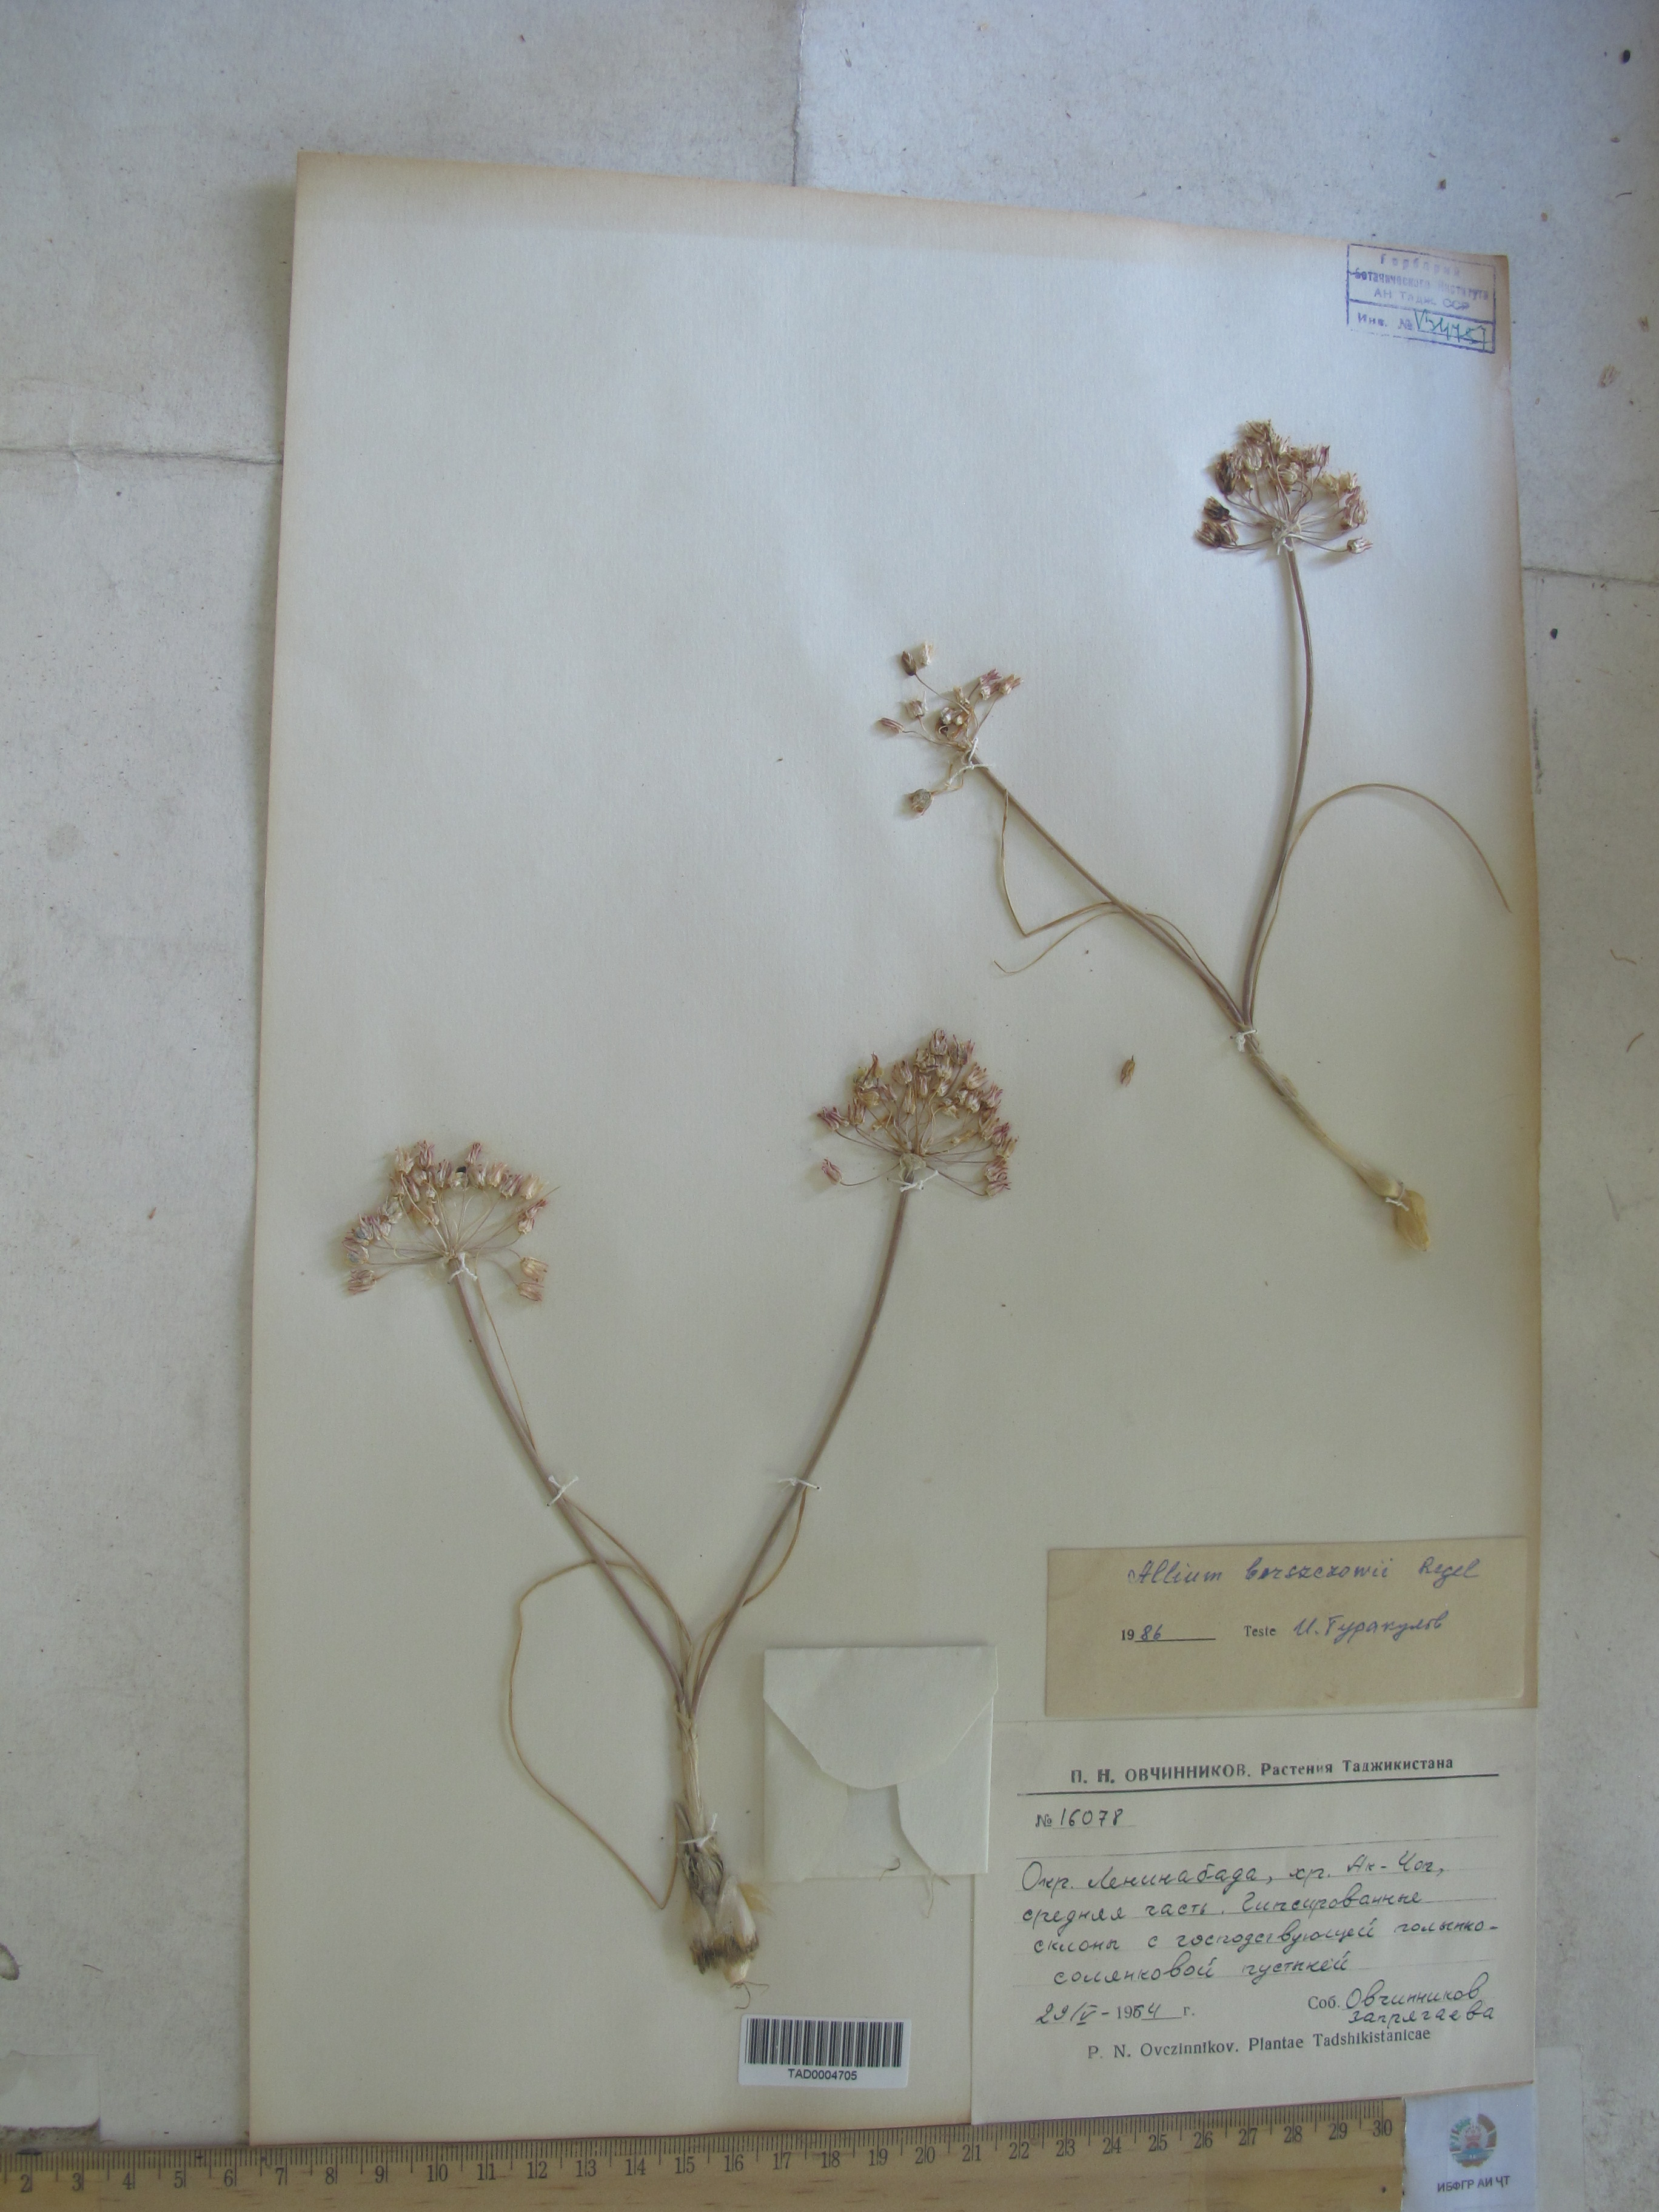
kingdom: Plantae
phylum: Tracheophyta
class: Liliopsida
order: Asparagales
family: Amaryllidaceae
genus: Allium
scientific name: Allium borszczowii
